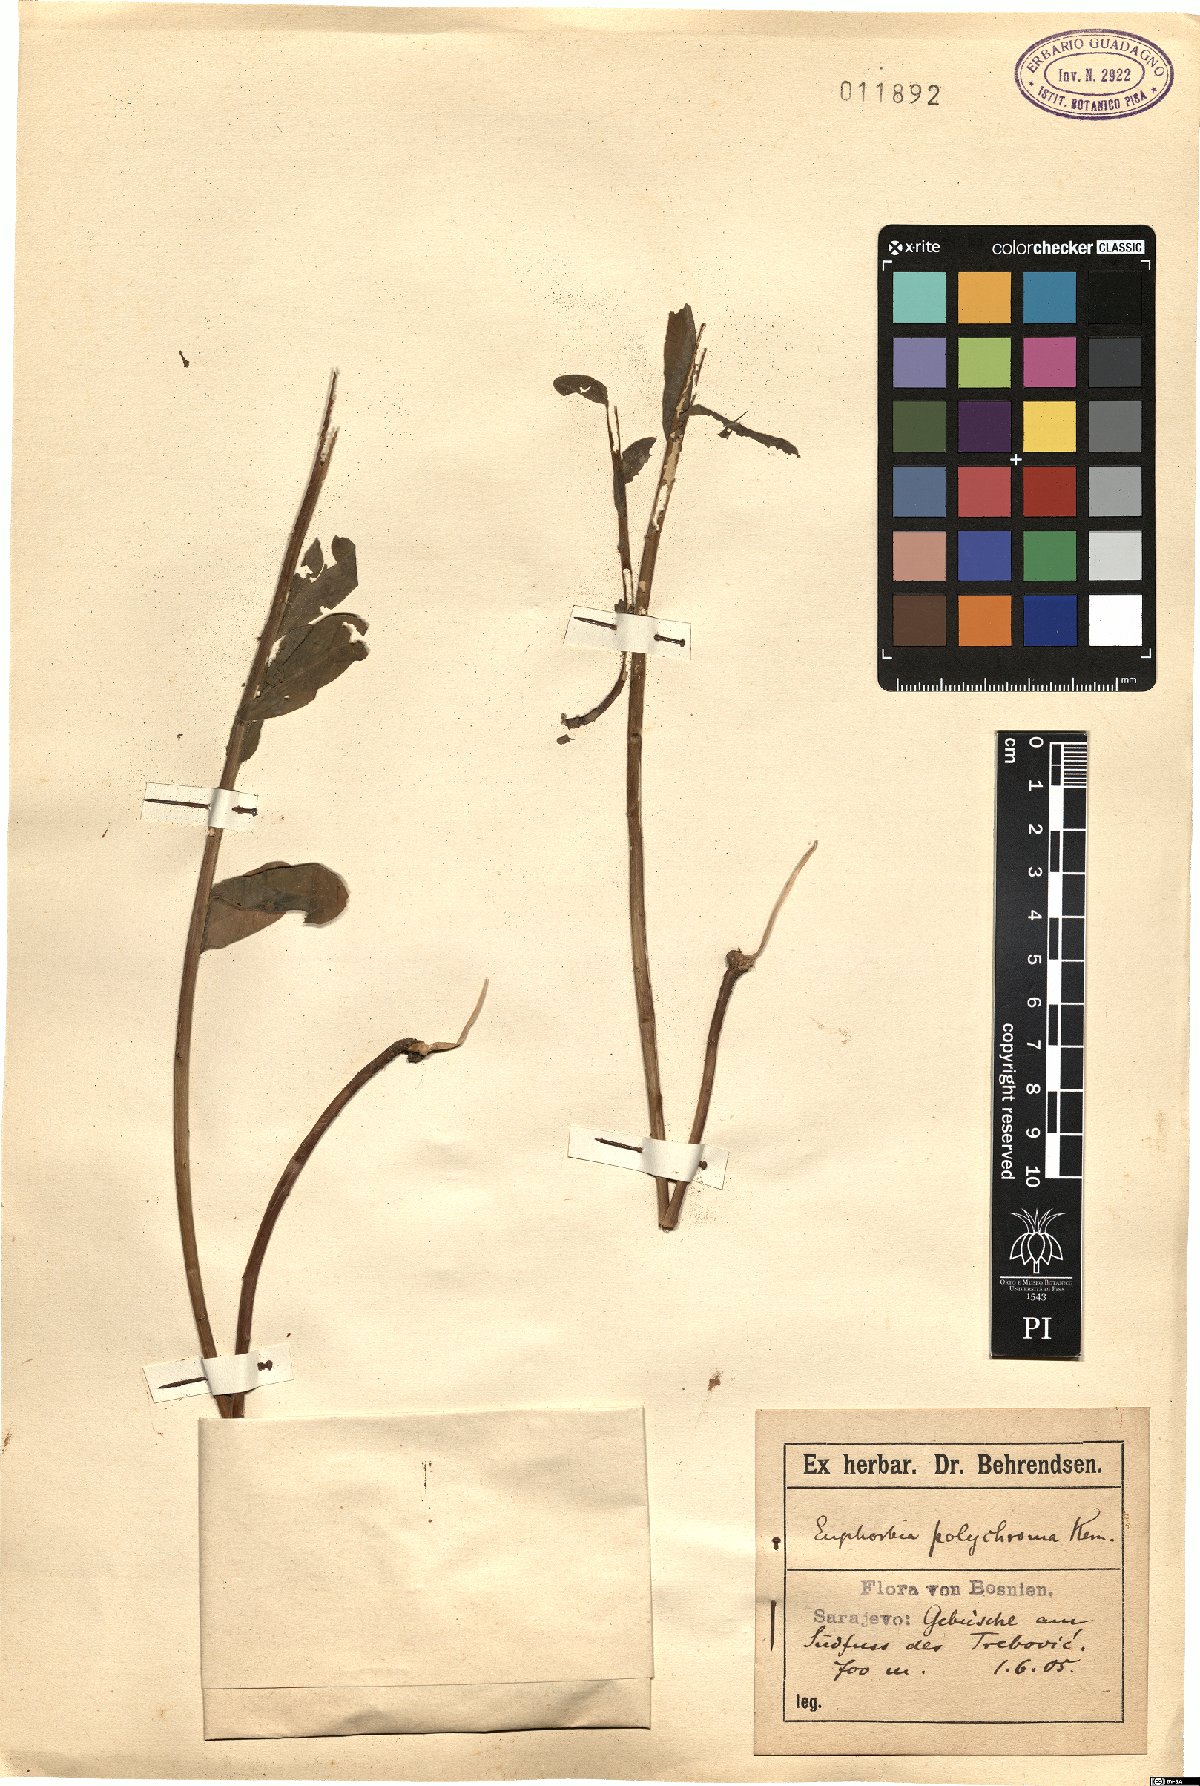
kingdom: Plantae
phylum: Tracheophyta
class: Magnoliopsida
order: Malpighiales
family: Euphorbiaceae
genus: Euphorbia
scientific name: Euphorbia epithymoides
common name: Cushion spurge
